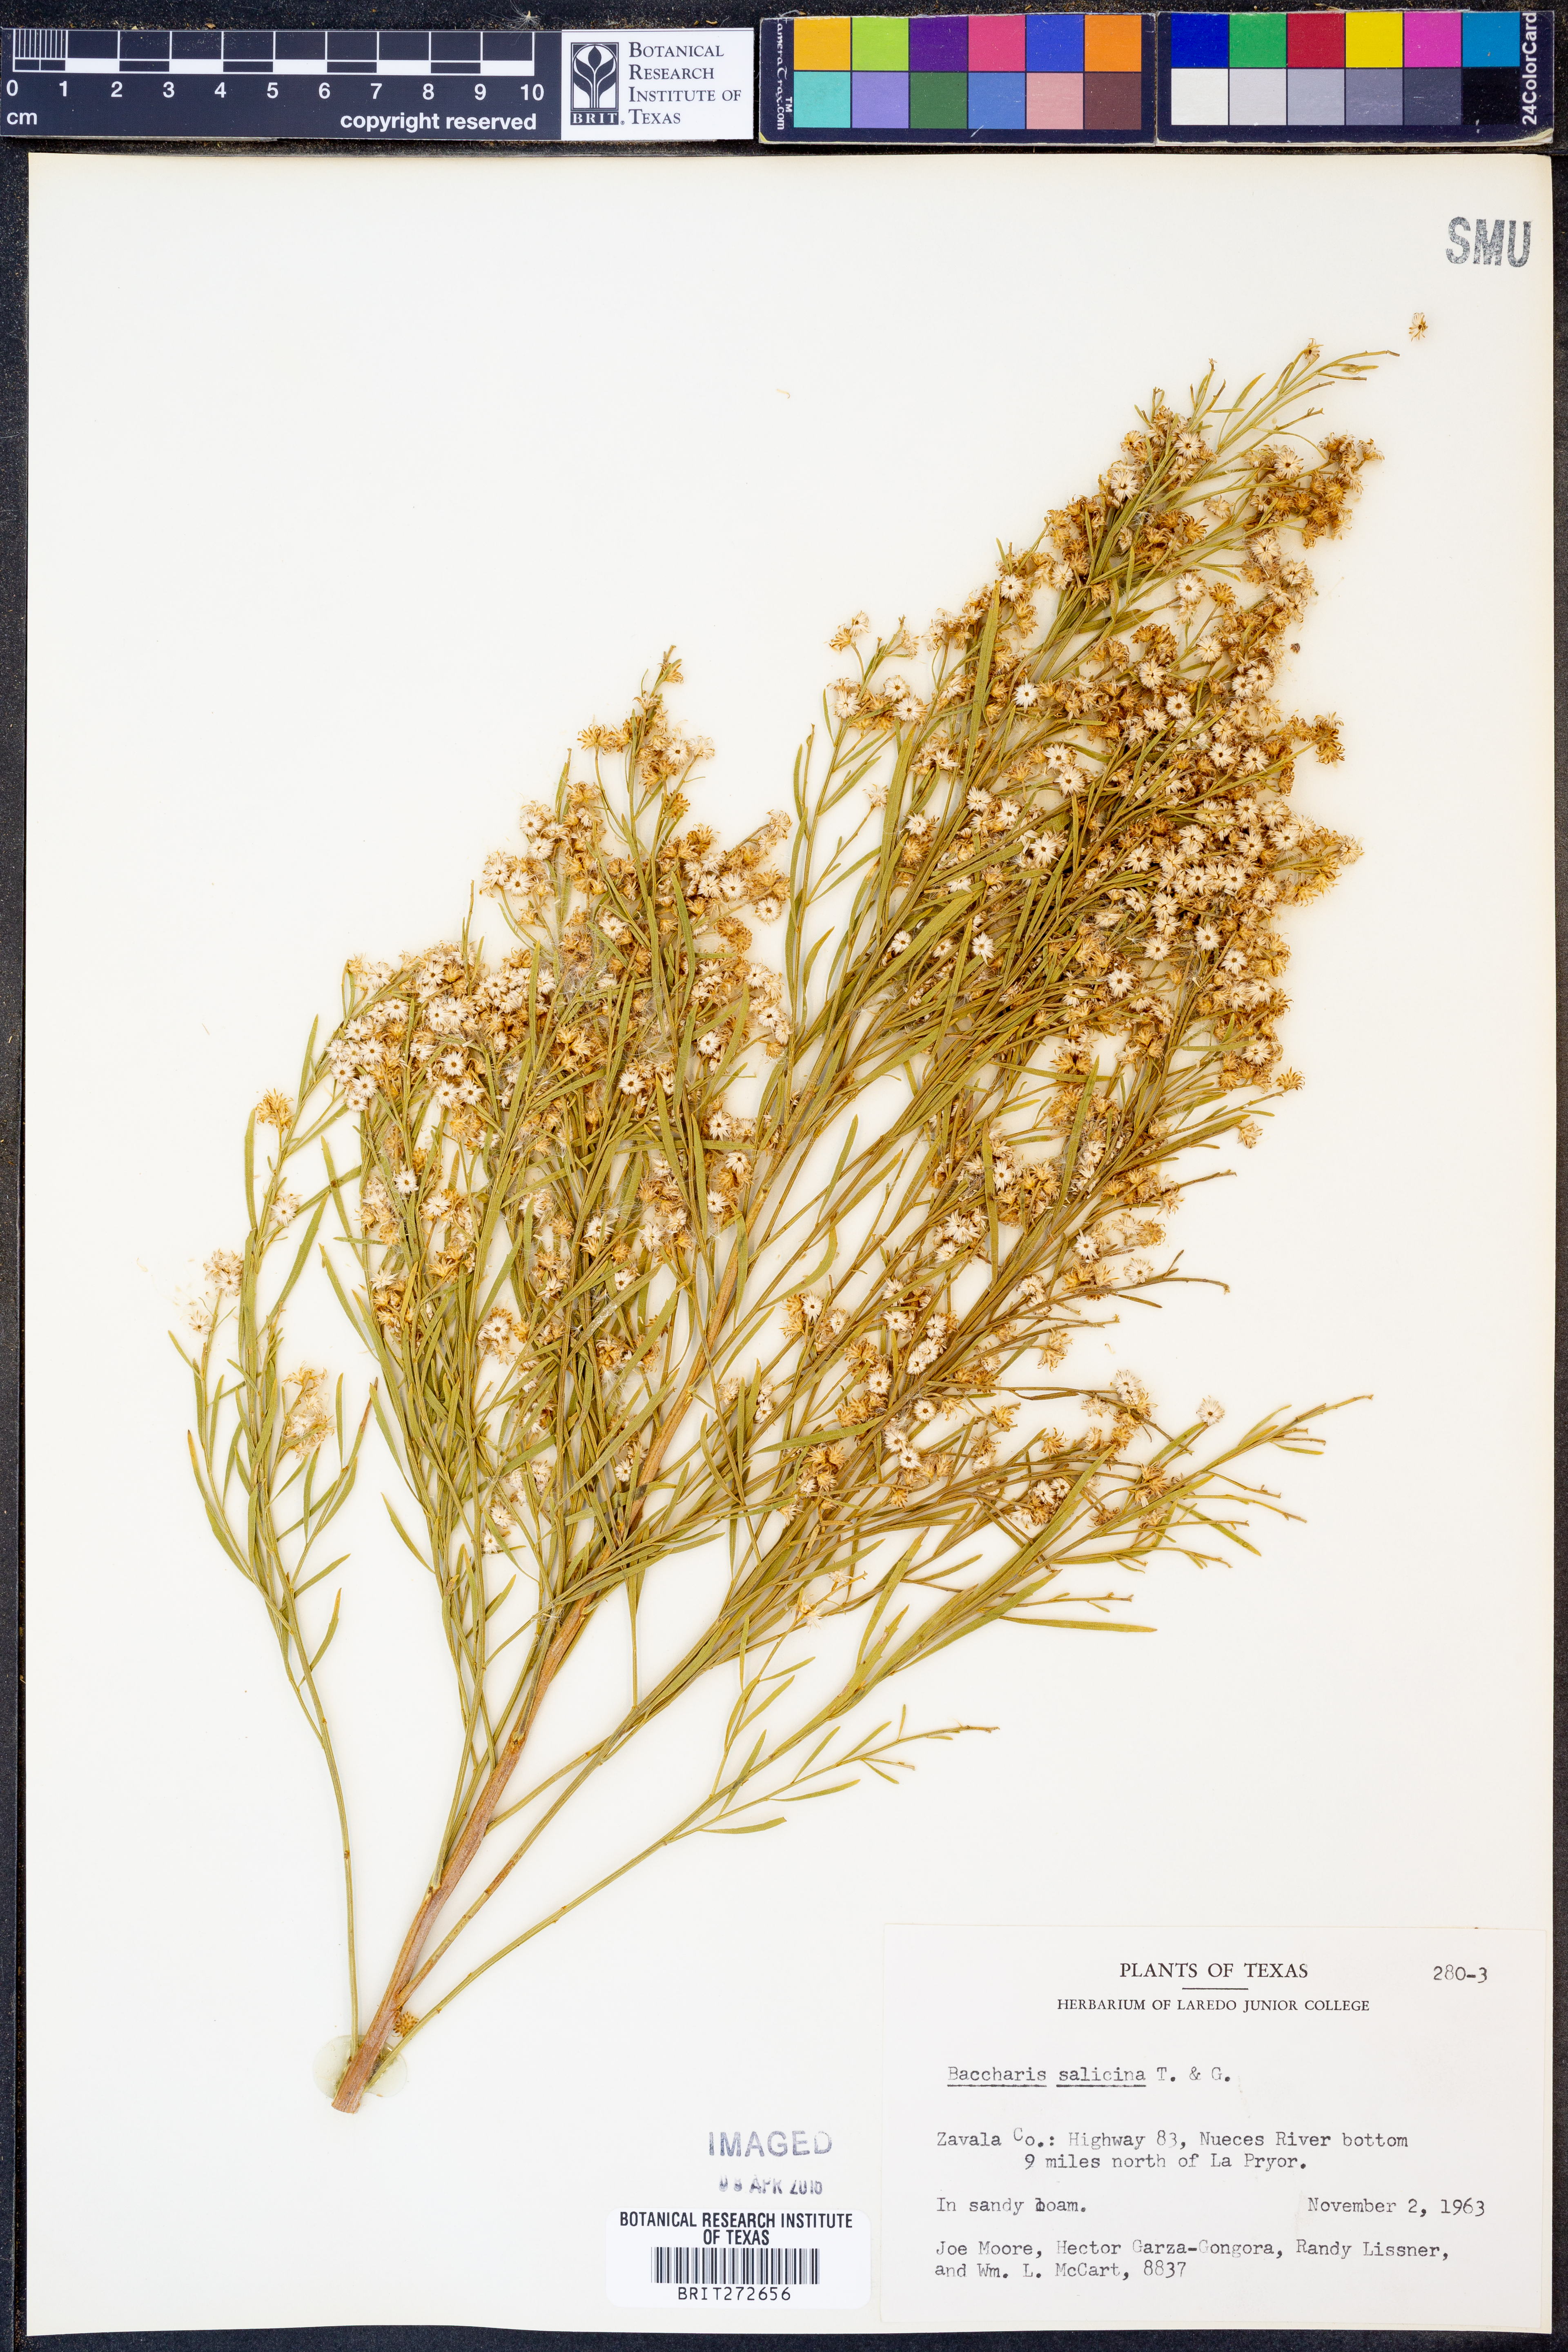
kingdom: Plantae
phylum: Tracheophyta
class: Magnoliopsida
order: Asterales
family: Asteraceae
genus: Baccharis
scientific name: Baccharis salicina
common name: Willow baccharis
